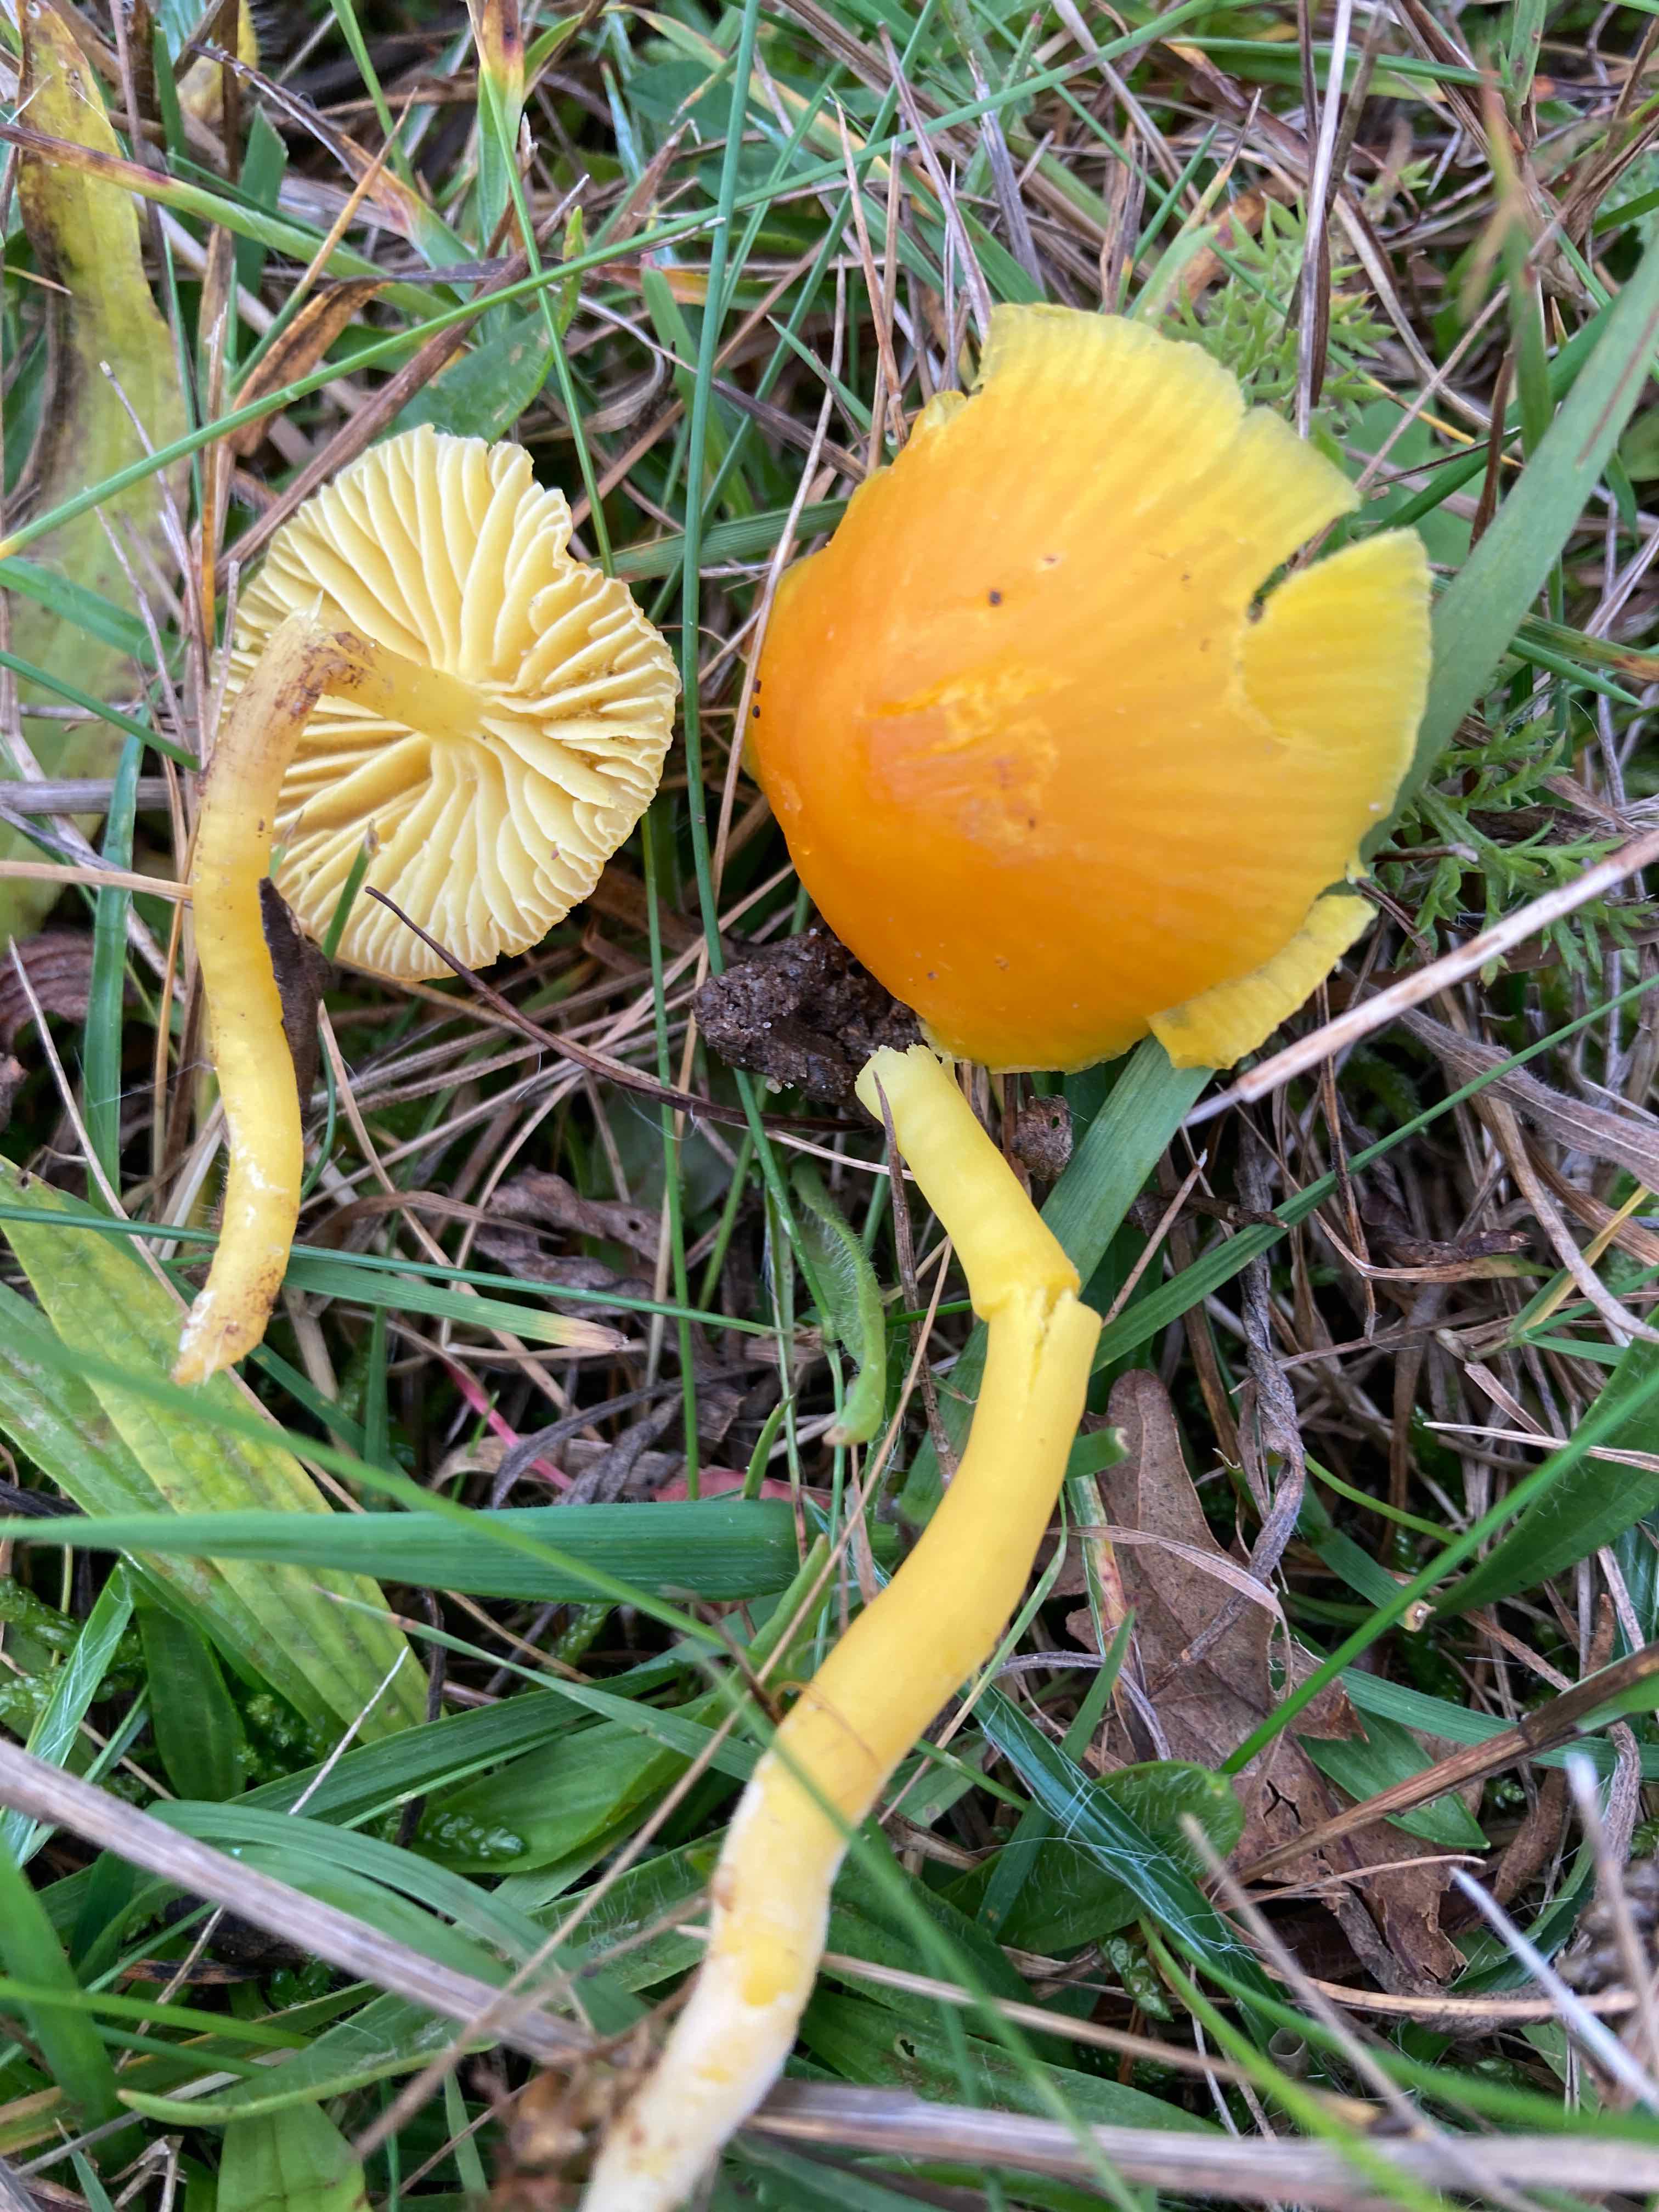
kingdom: Fungi
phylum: Basidiomycota
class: Agaricomycetes
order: Agaricales
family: Hygrophoraceae
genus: Hygrocybe
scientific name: Hygrocybe ceracea
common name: voksgul vokshat
